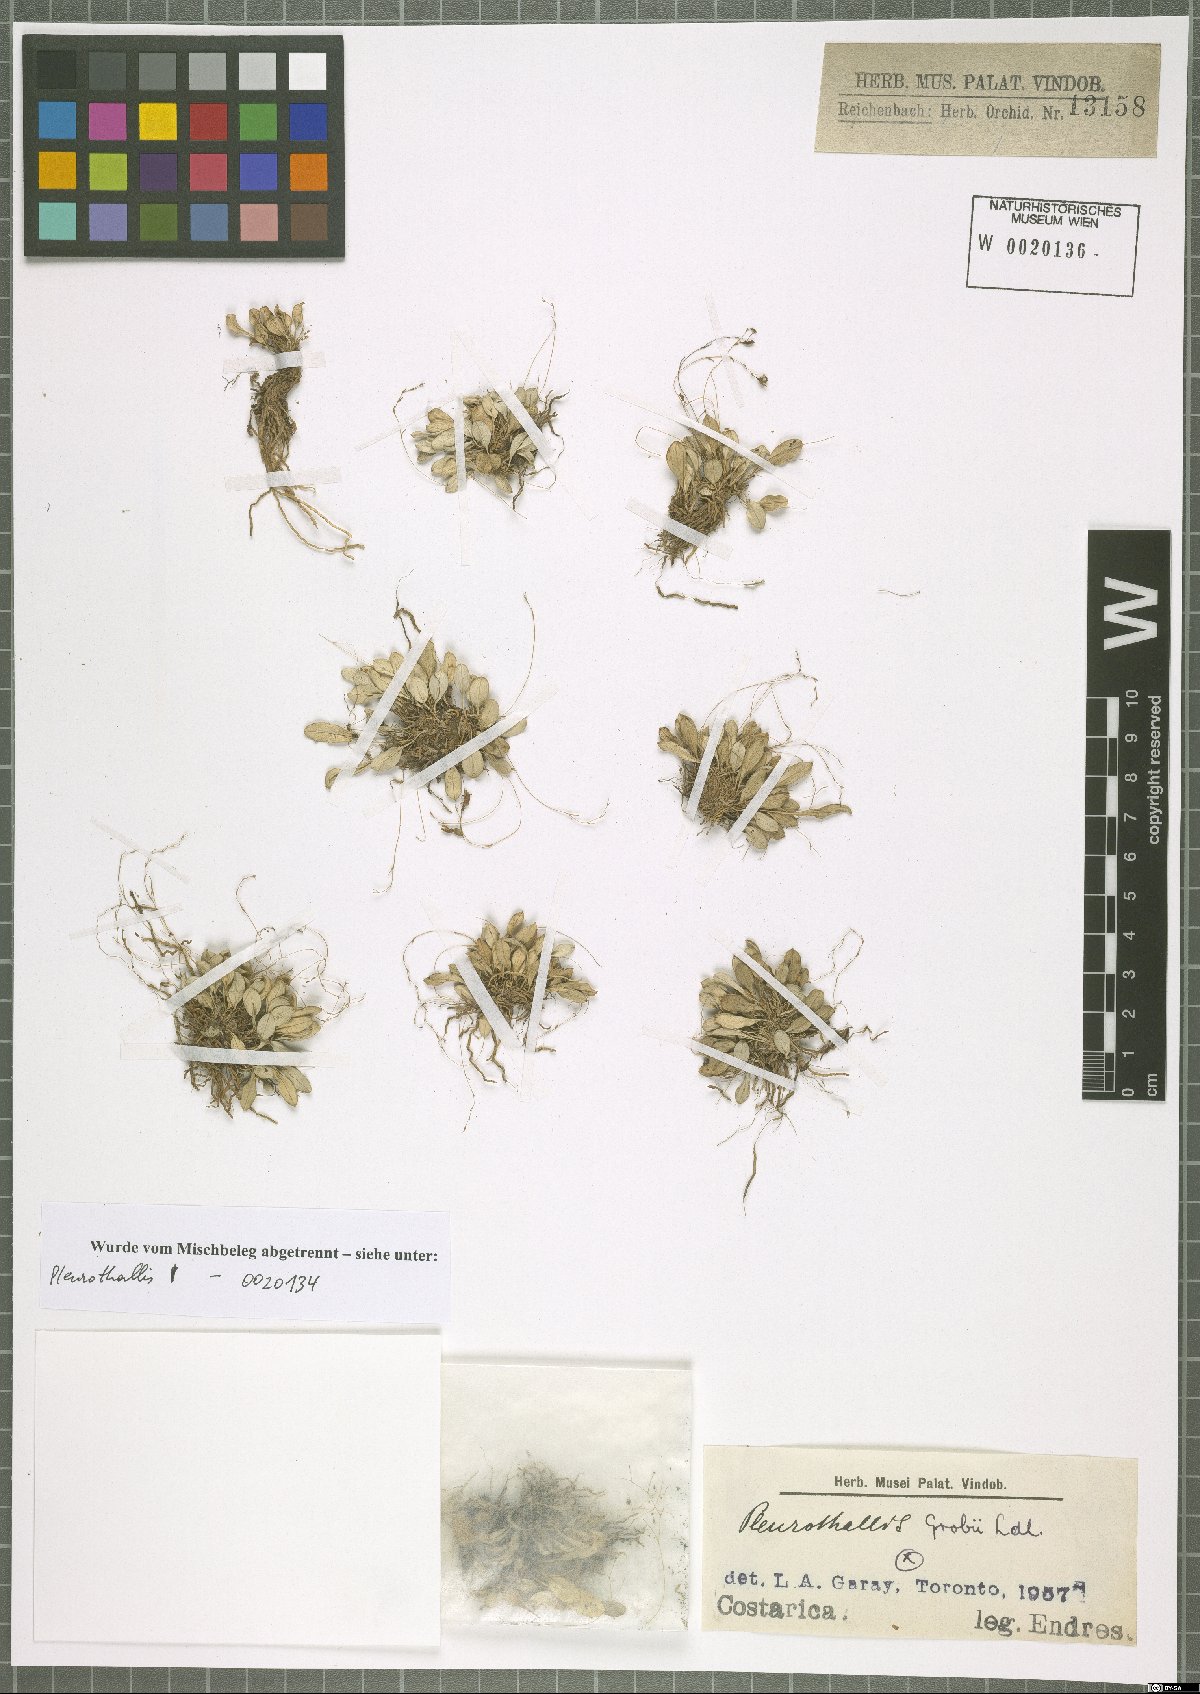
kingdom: Plantae
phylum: Tracheophyta
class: Liliopsida
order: Asparagales
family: Orchidaceae
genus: Specklinia
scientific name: Specklinia grobyi
